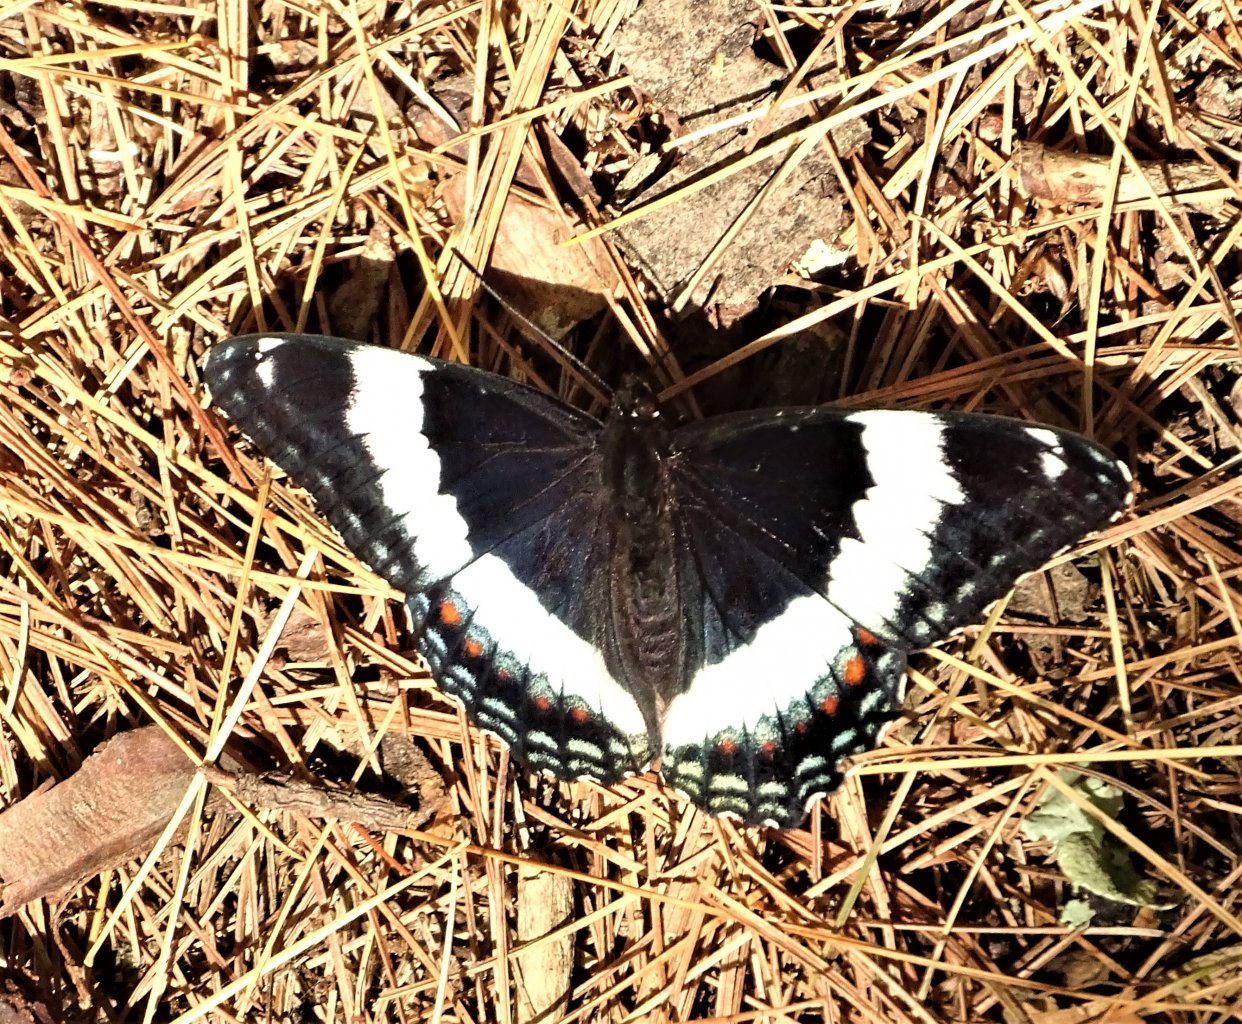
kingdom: Animalia
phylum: Arthropoda
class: Insecta
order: Lepidoptera
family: Nymphalidae
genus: Limenitis
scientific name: Limenitis arthemis
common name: Red-spotted Admiral
